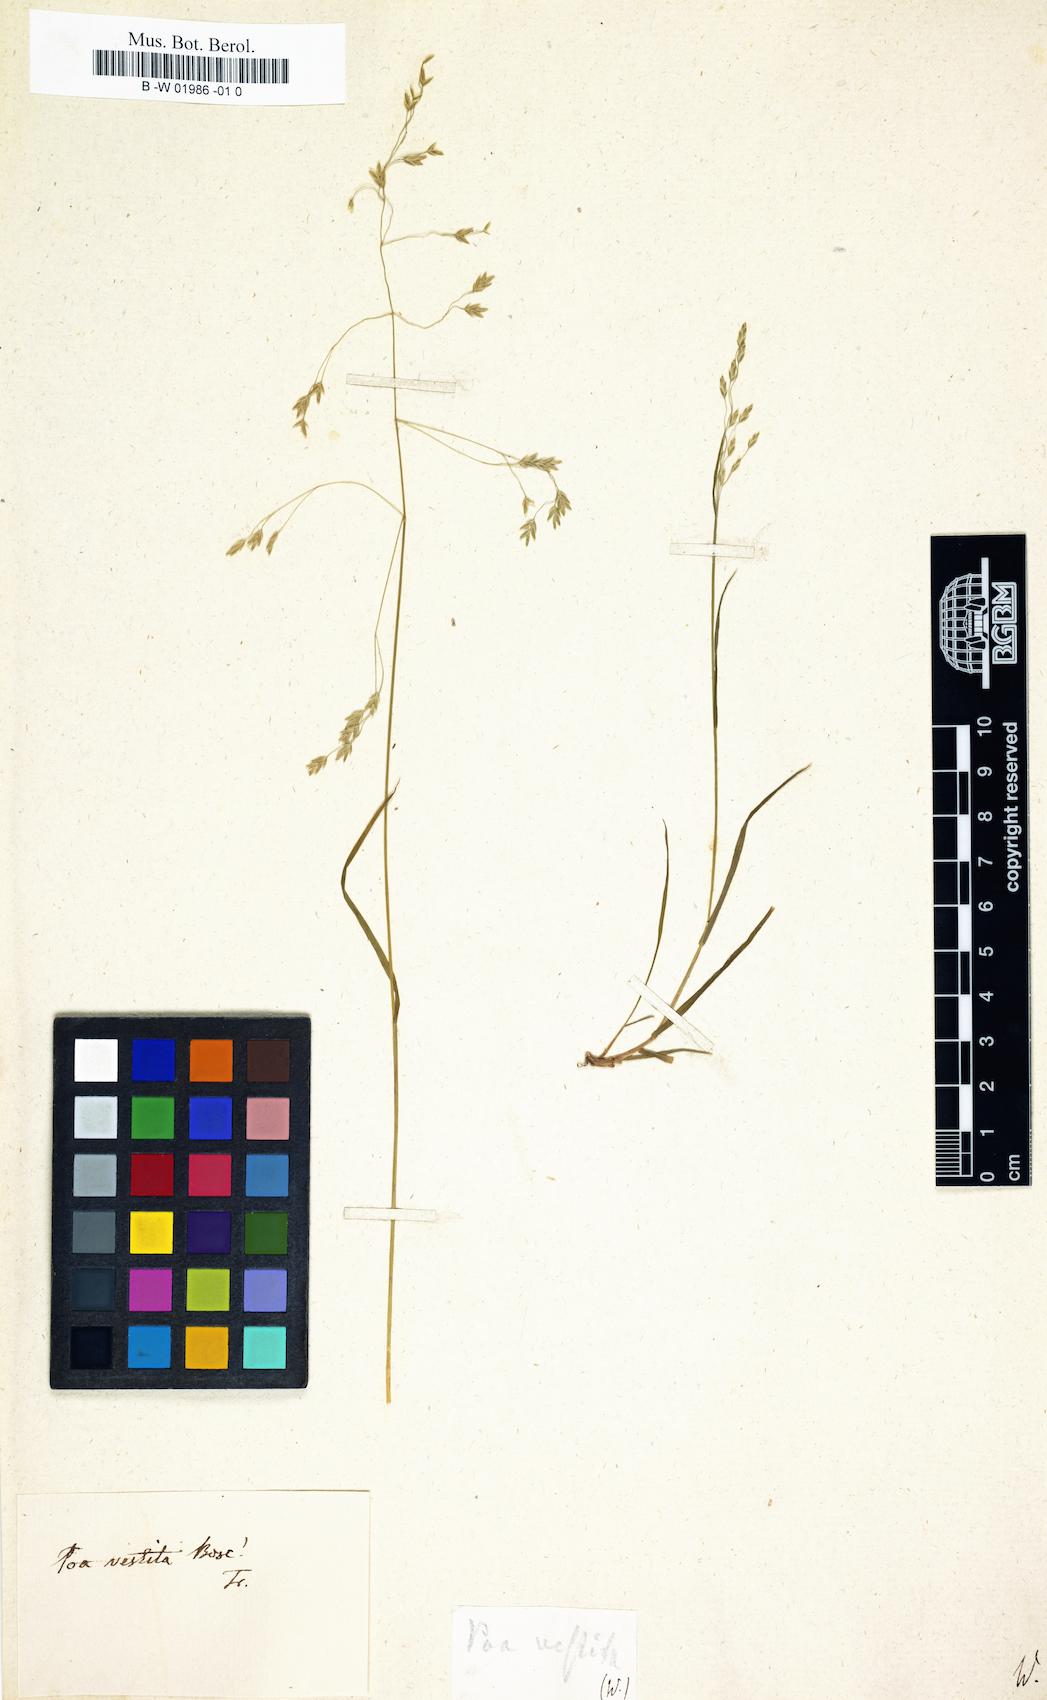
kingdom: Plantae
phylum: Tracheophyta
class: Liliopsida
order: Poales
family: Poaceae
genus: Poa
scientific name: Poa autumnalis
